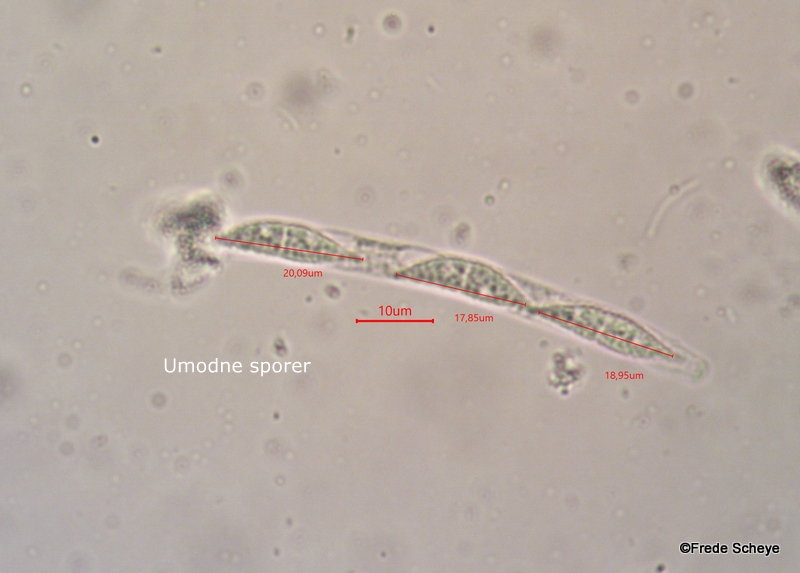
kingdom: Fungi
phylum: Ascomycota
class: Sordariomycetes
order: Hypocreales
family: Hypocreaceae
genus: Hypomyces
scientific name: Hypomyces aurantius
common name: almindelig snylteskorpe
